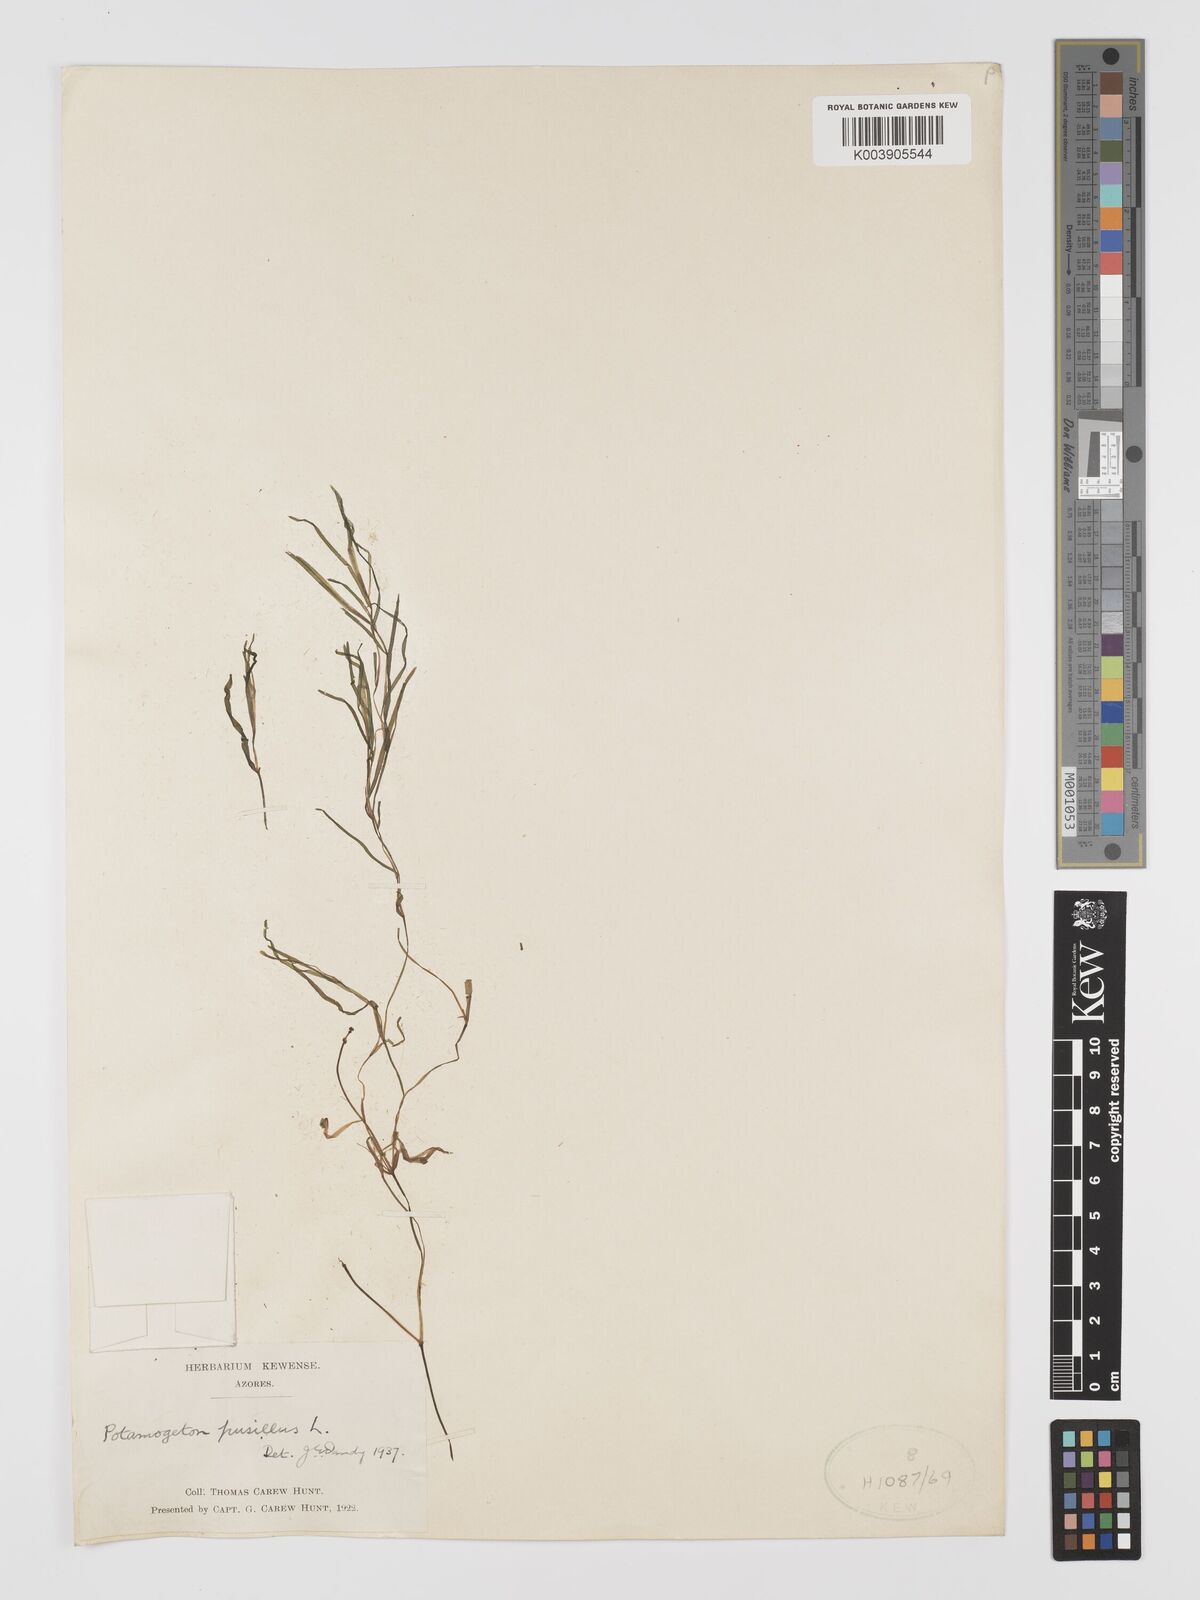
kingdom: Plantae
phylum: Tracheophyta
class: Liliopsida
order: Alismatales
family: Potamogetonaceae
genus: Potamogeton
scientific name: Potamogeton pusillus
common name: Lesser pondweed
